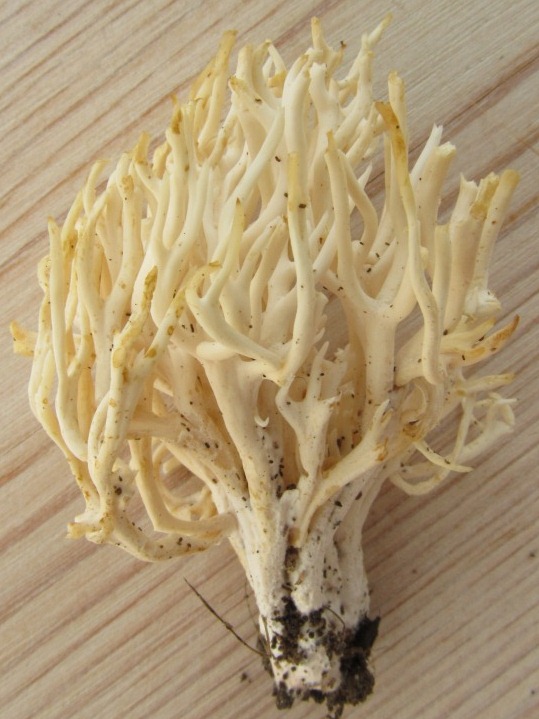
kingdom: Fungi
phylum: Basidiomycota
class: Agaricomycetes
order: Agaricales
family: Clavariaceae
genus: Ramariopsis
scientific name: Ramariopsis kunzei
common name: mangegrenet køllesvamp
